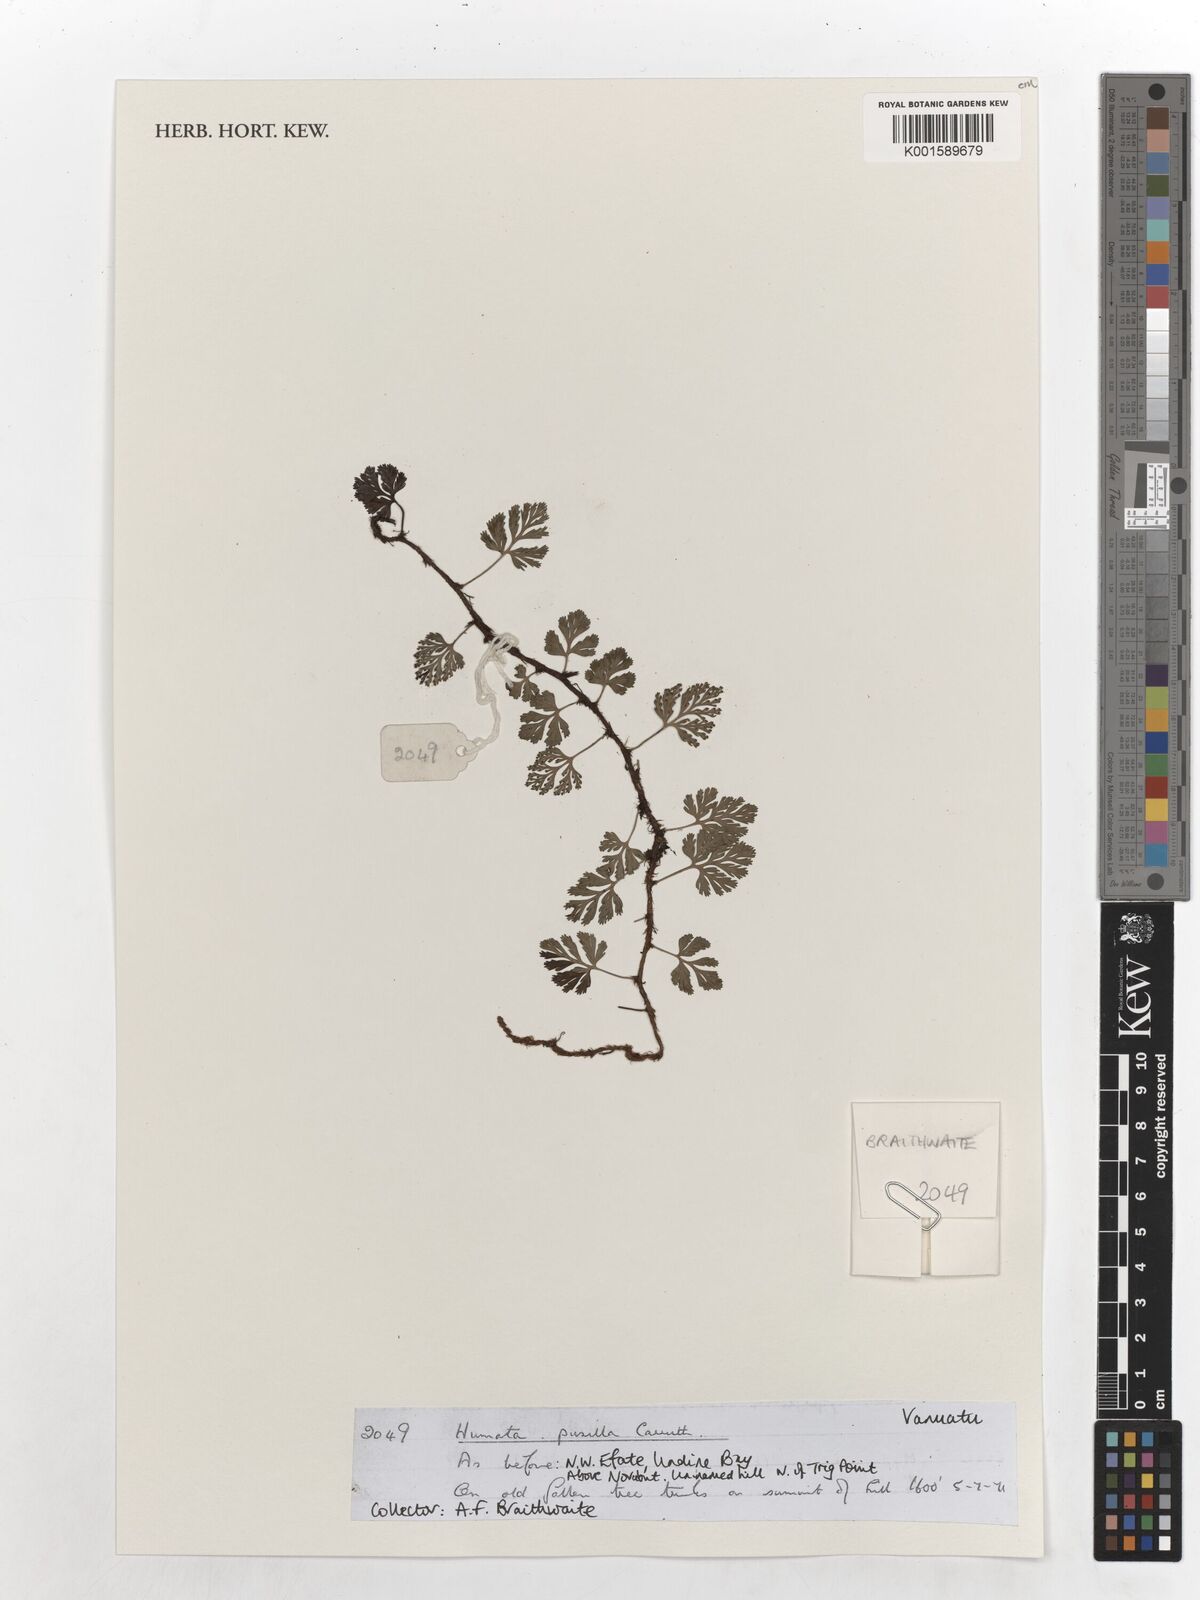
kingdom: Plantae
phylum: Tracheophyta
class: Polypodiopsida
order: Polypodiales
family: Davalliaceae
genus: Davallia
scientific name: Davallia pusilla
